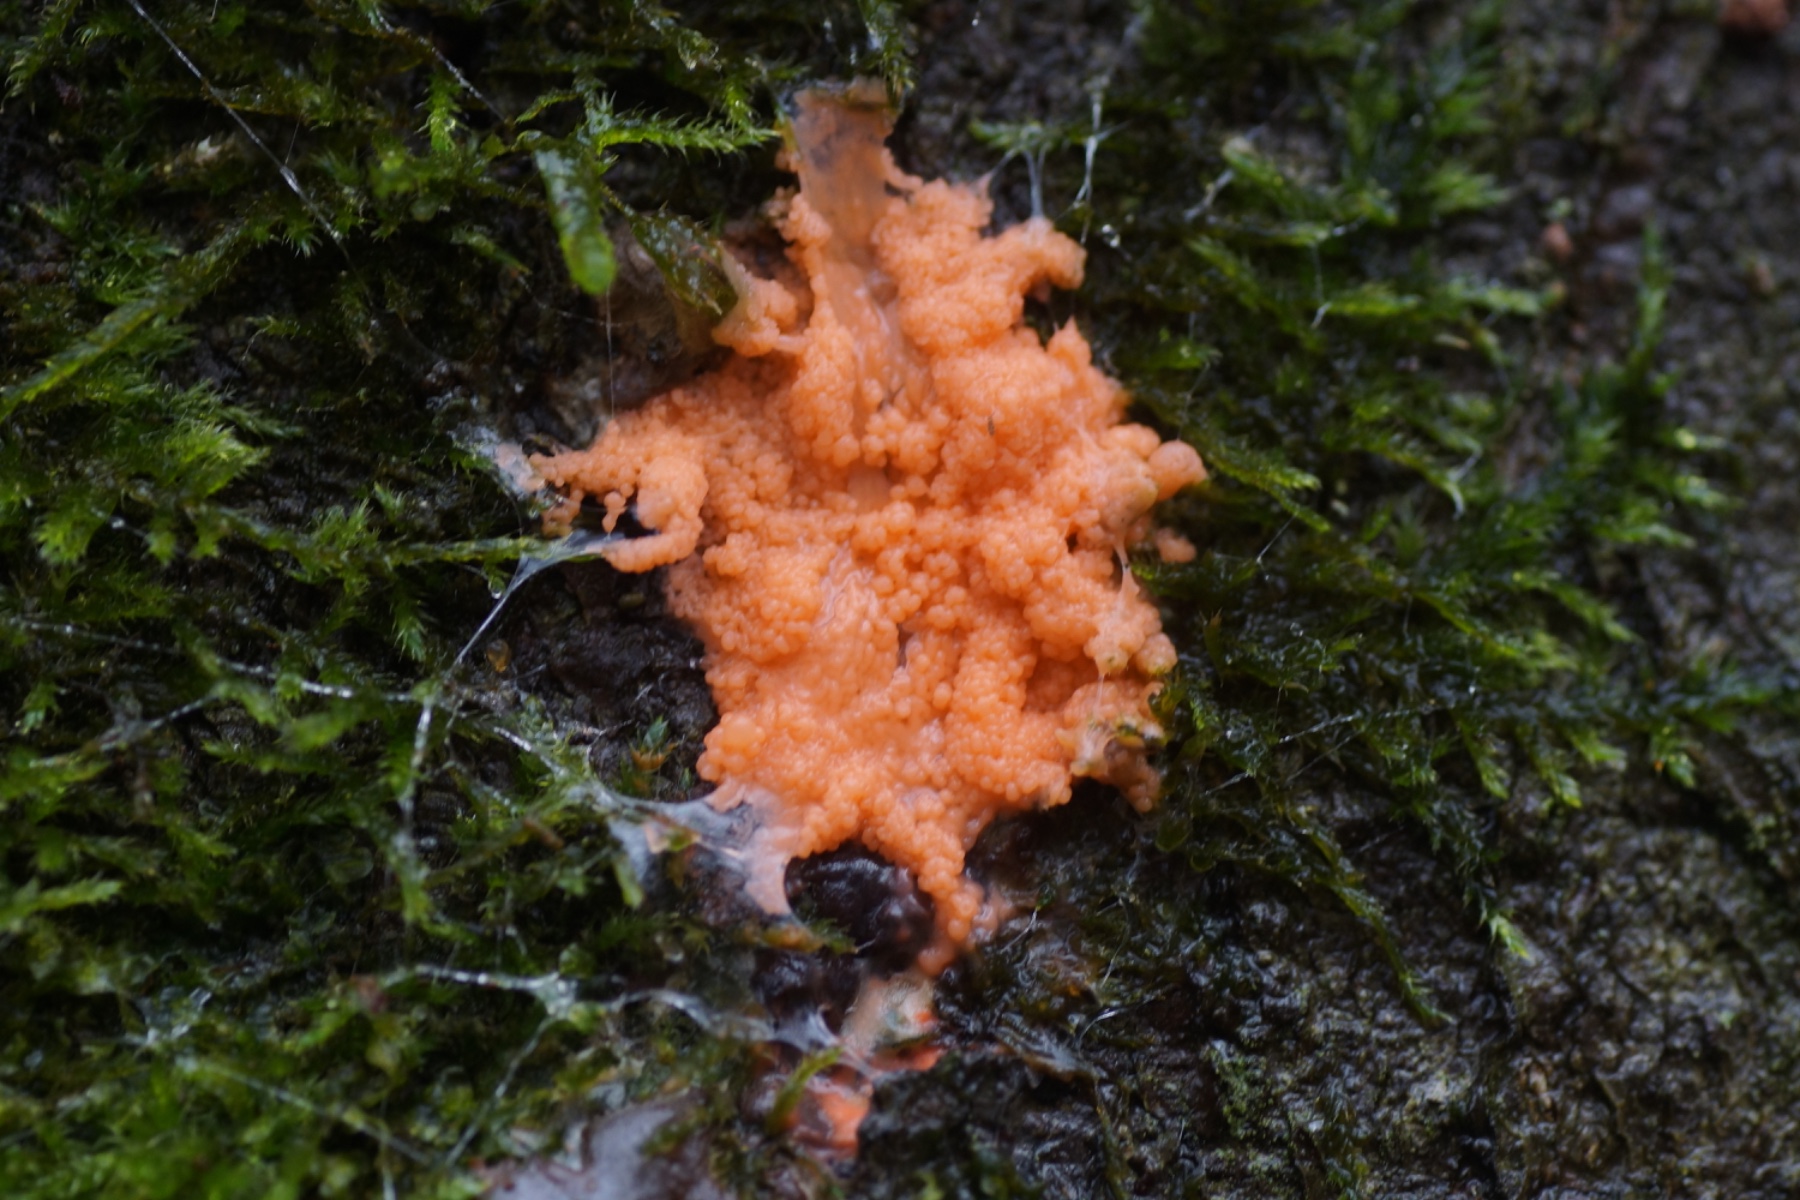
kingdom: Protozoa
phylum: Mycetozoa
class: Myxomycetes
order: Trichiales
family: Dictydiaethaliaceae
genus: Dictydiaethalium
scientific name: Dictydiaethalium plumbeum
